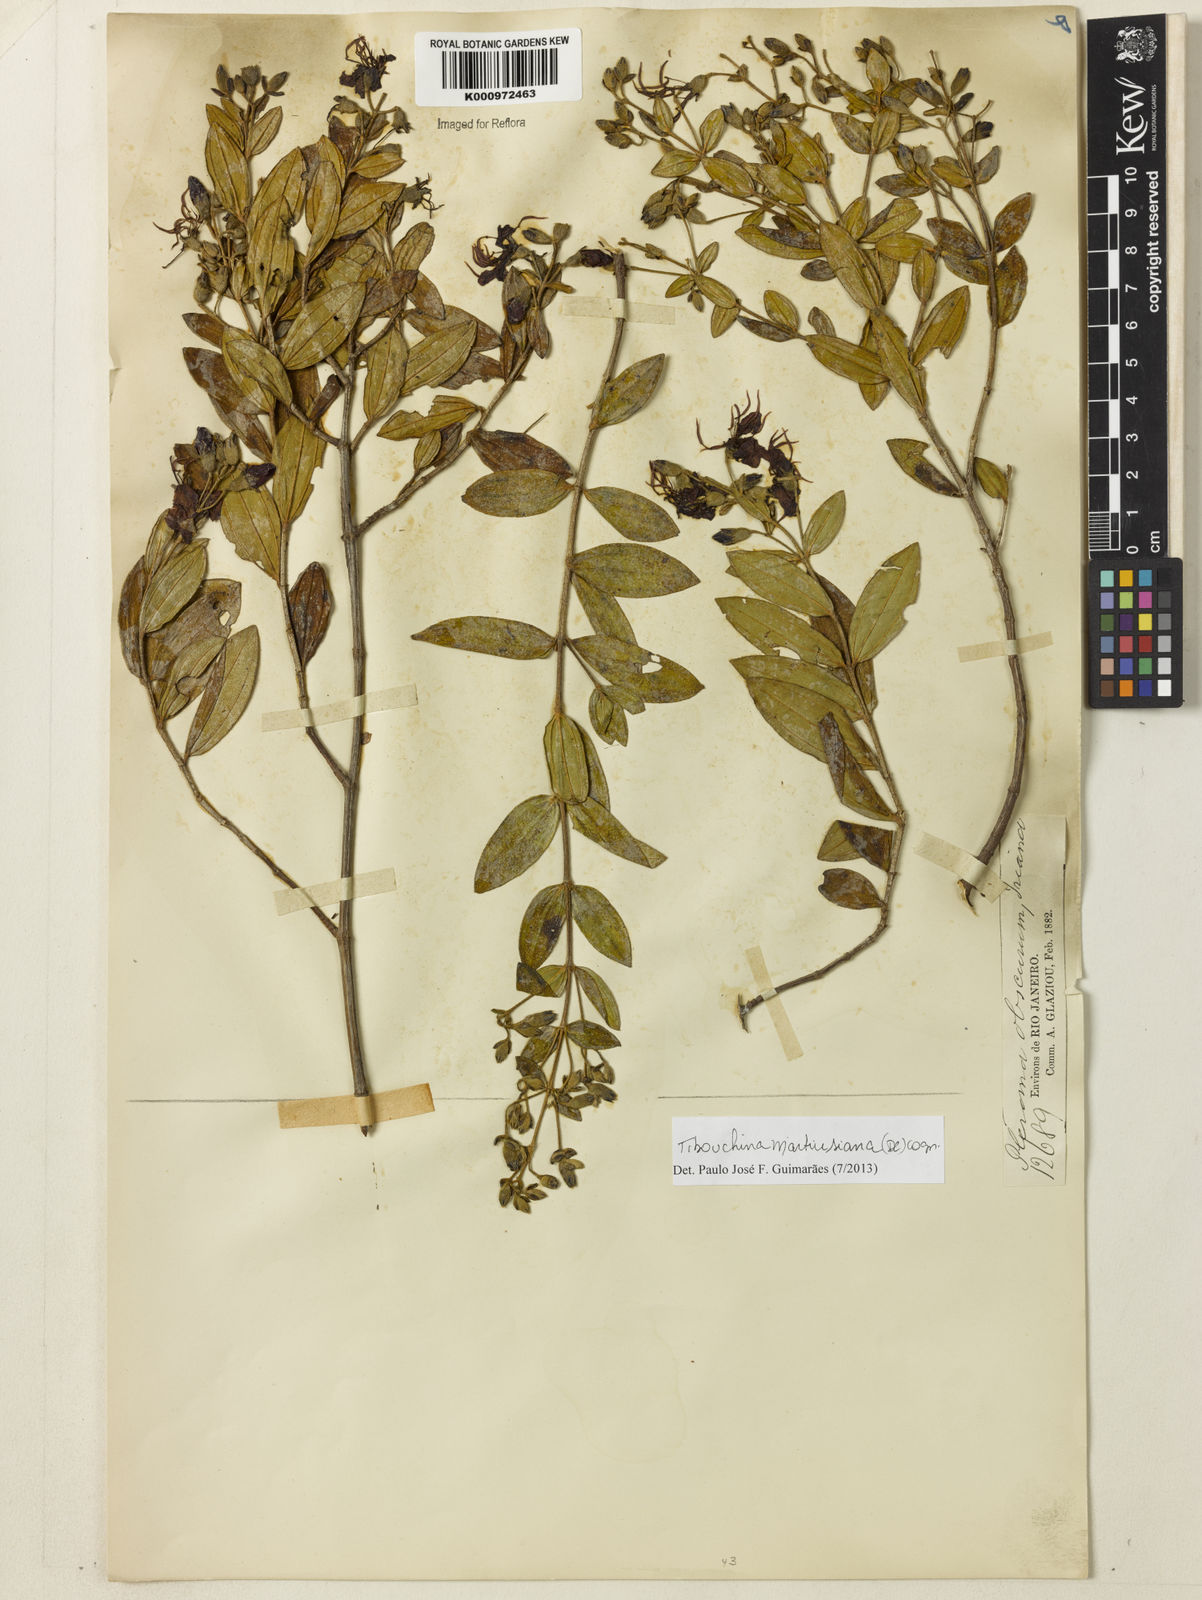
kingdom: Plantae
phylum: Tracheophyta
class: Magnoliopsida
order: Myrtales
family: Melastomataceae
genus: Pleroma
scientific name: Pleroma martiusianum
